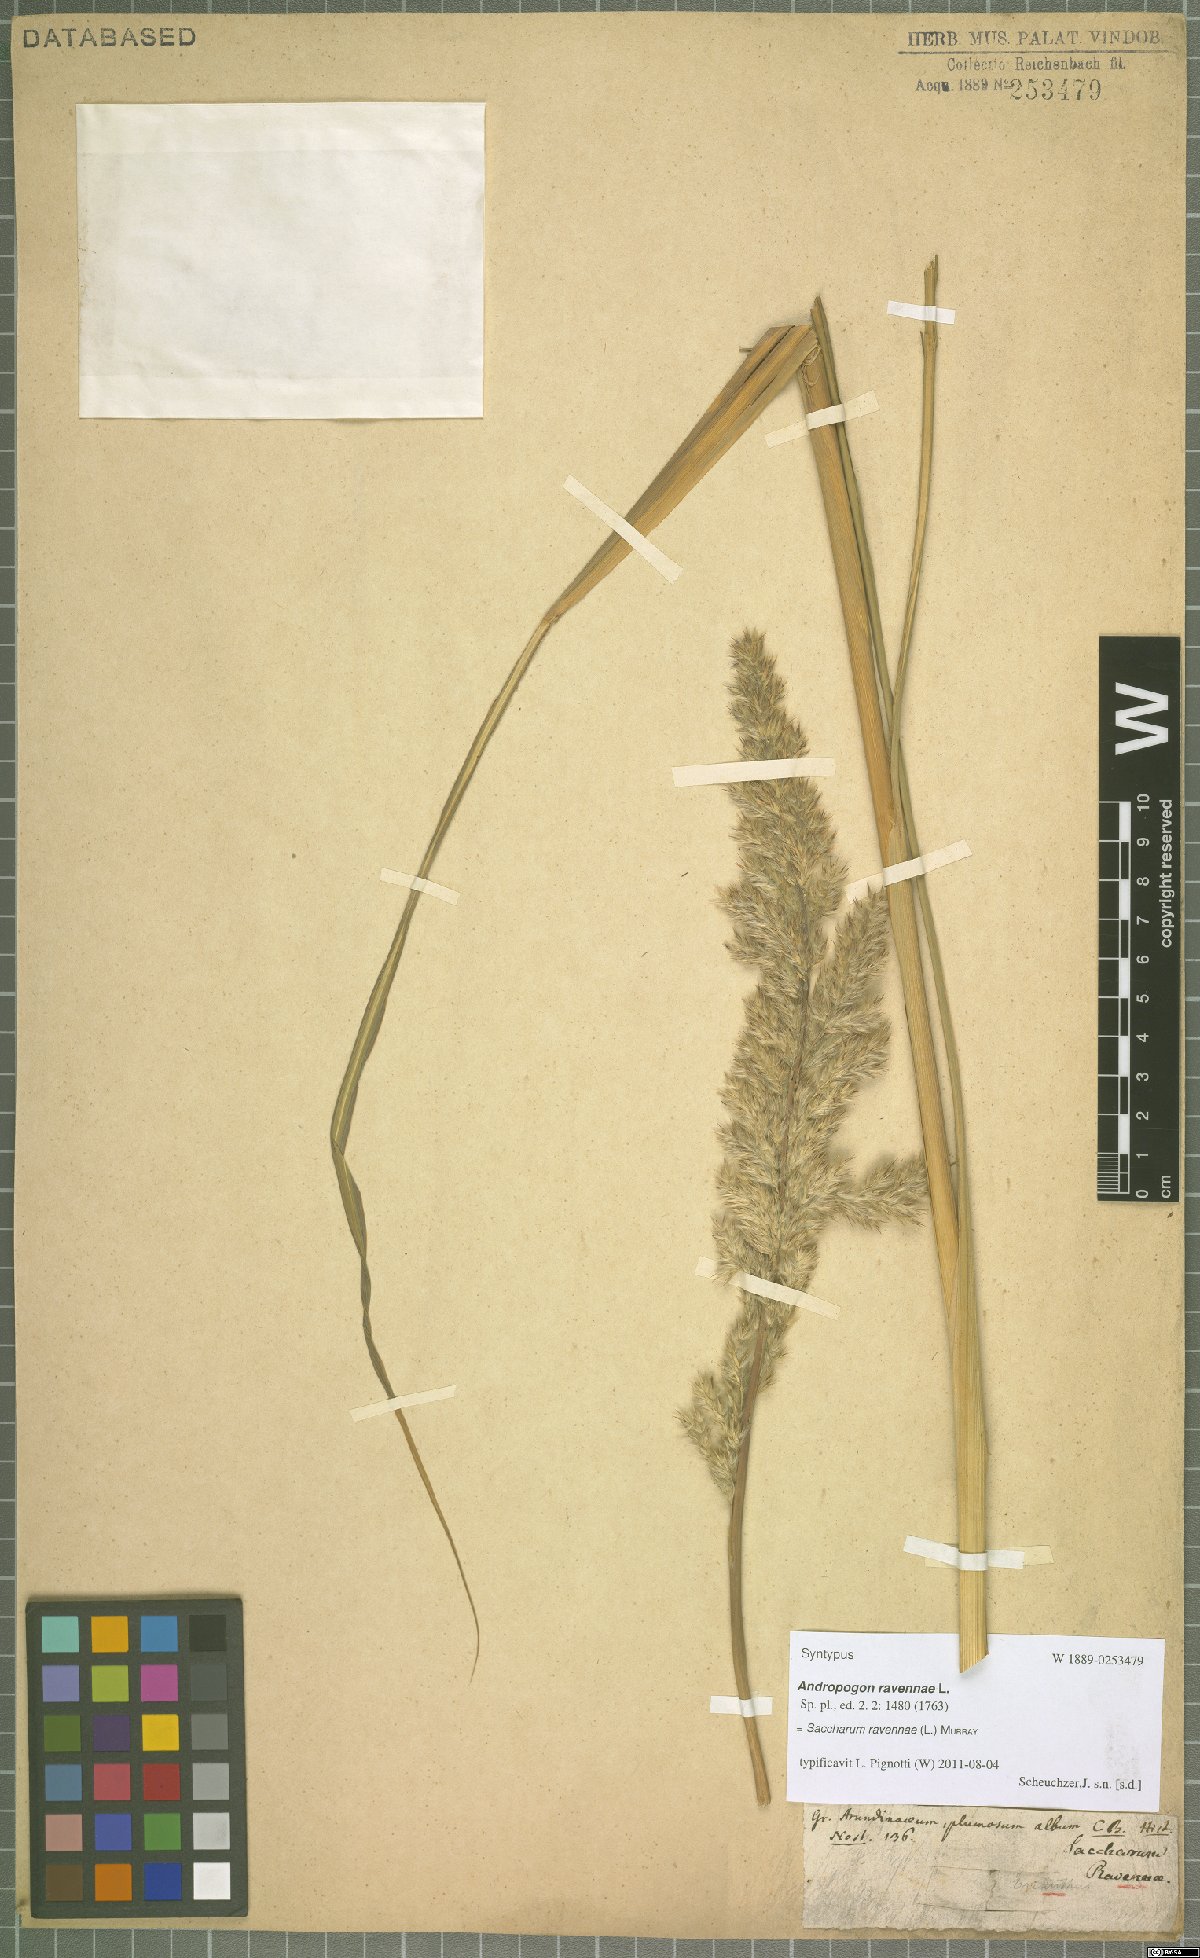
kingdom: Plantae
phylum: Tracheophyta
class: Liliopsida
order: Poales
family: Poaceae
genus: Tripidium
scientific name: Tripidium ravennae
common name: Ravenna grass
